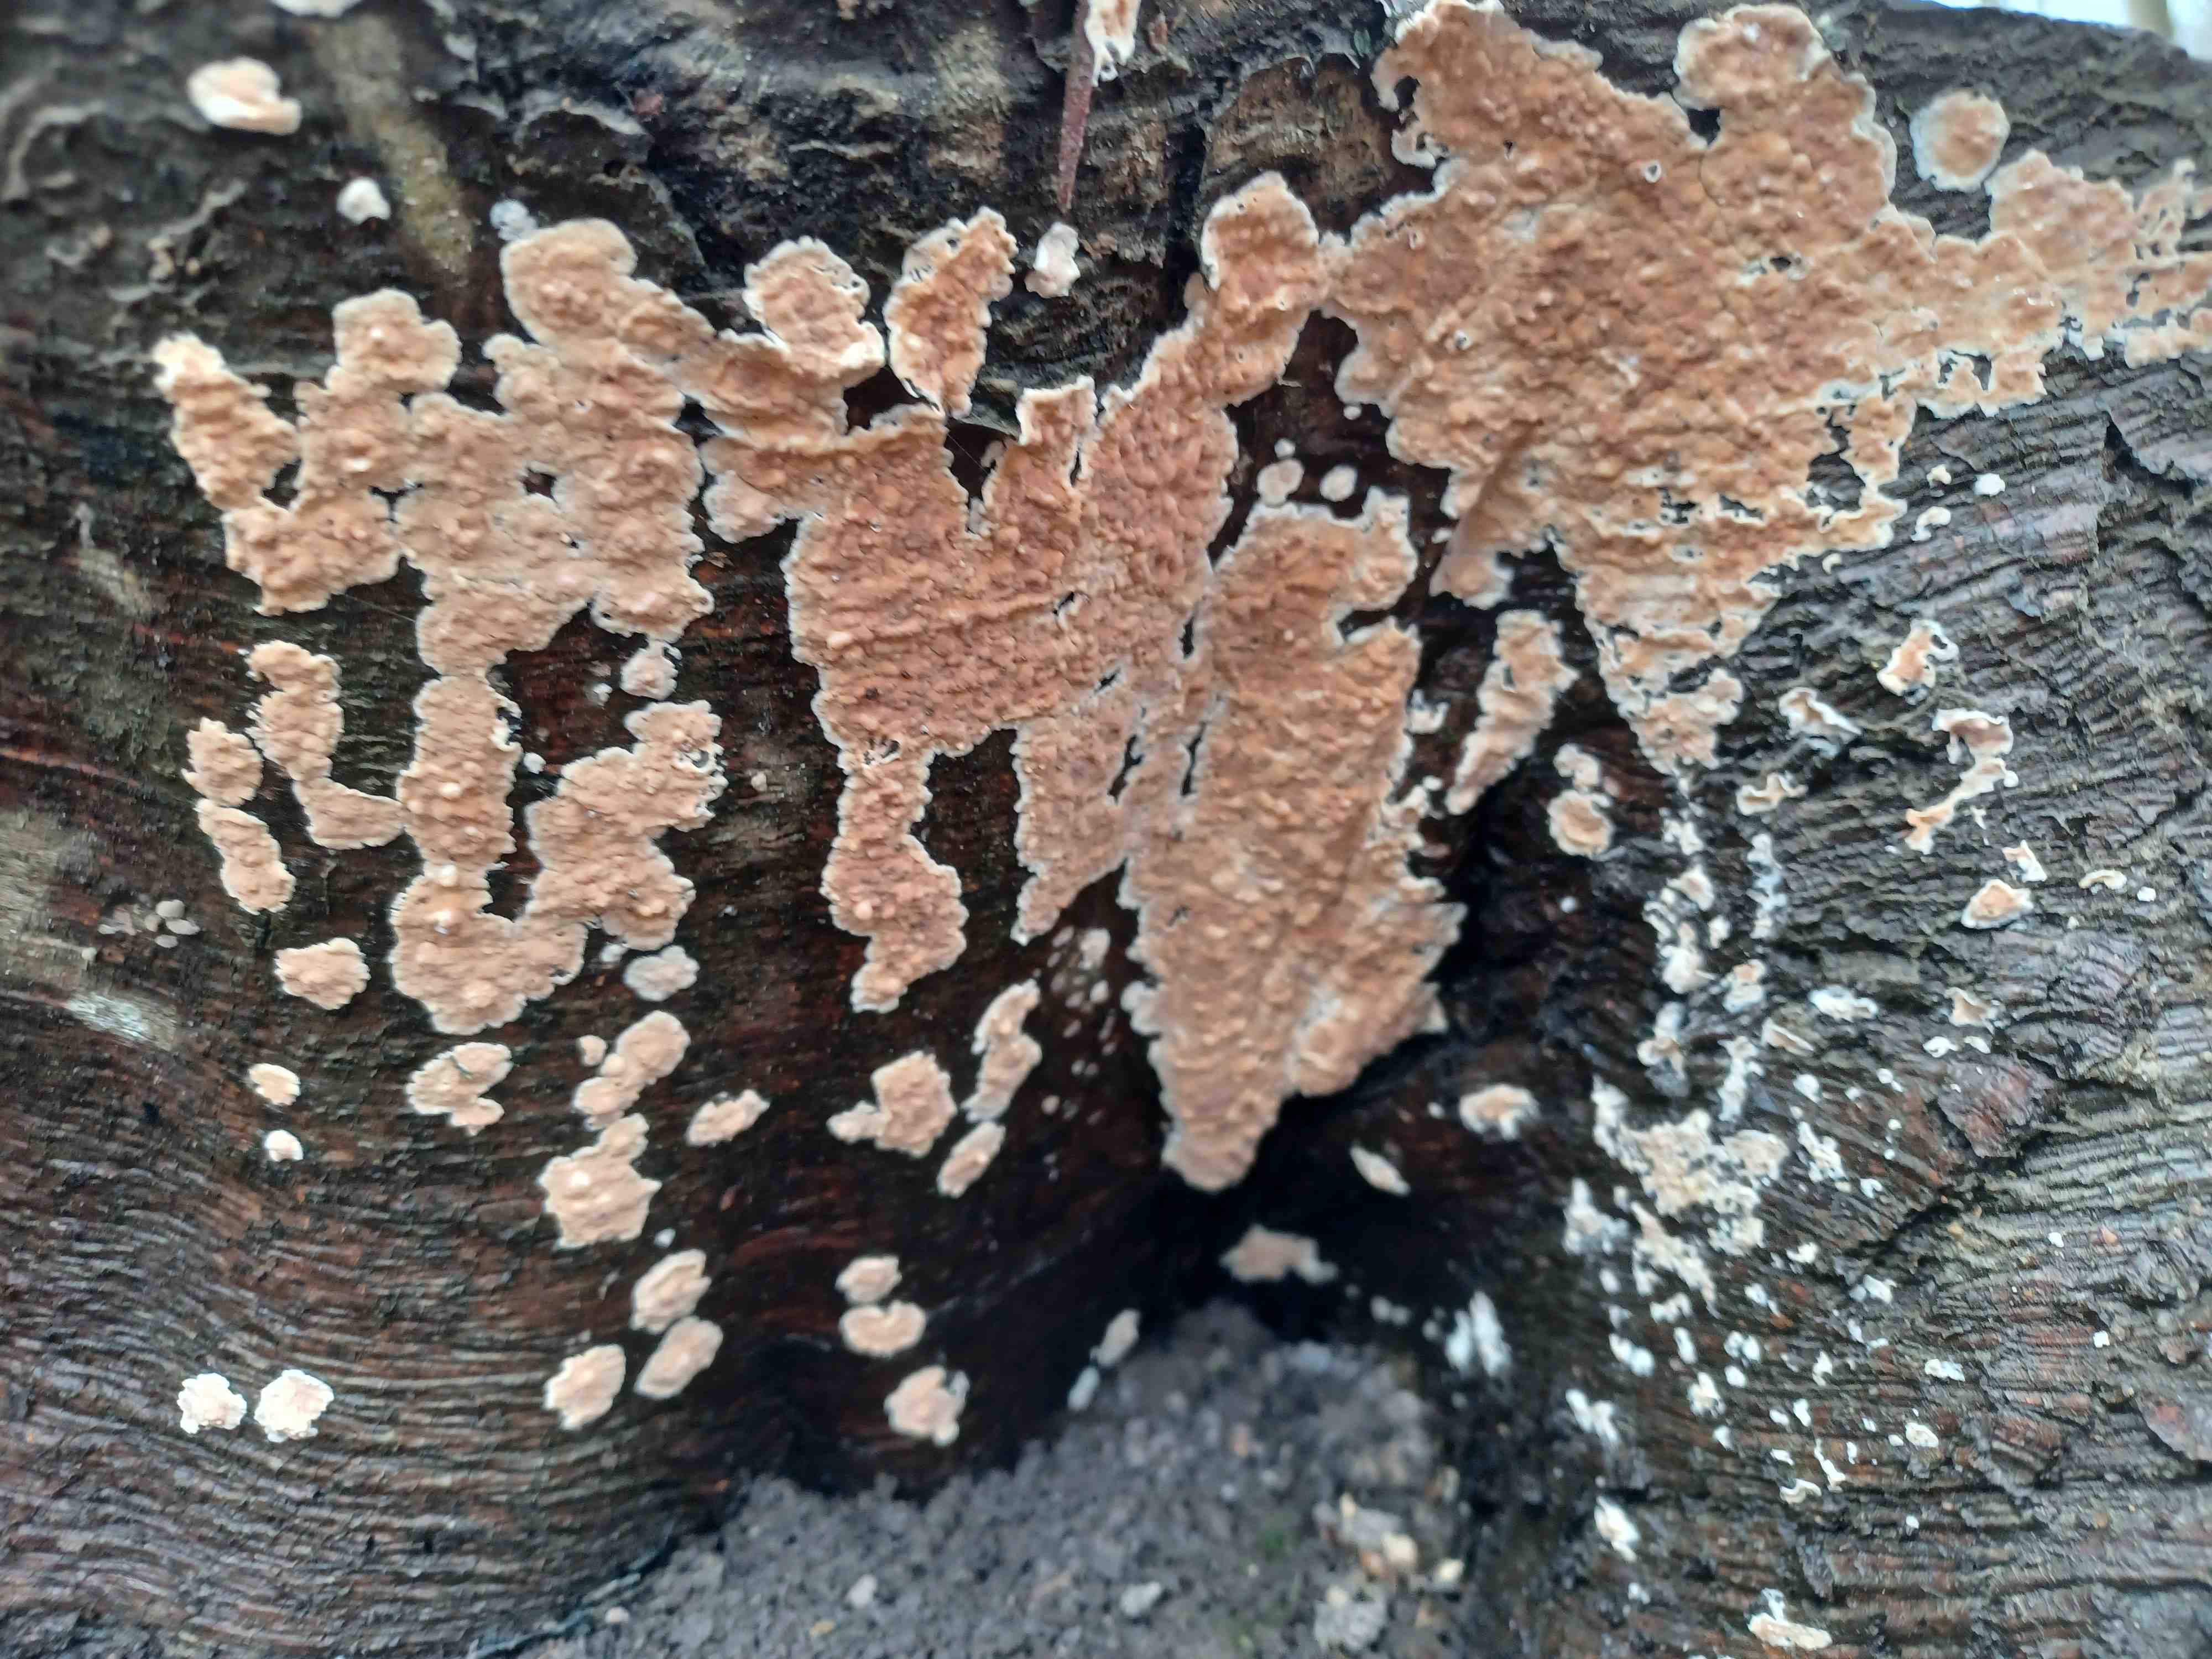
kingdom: Fungi
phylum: Basidiomycota
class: Agaricomycetes
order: Agaricales
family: Physalacriaceae
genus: Cylindrobasidium
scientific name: Cylindrobasidium evolvens
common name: sprækkehinde
